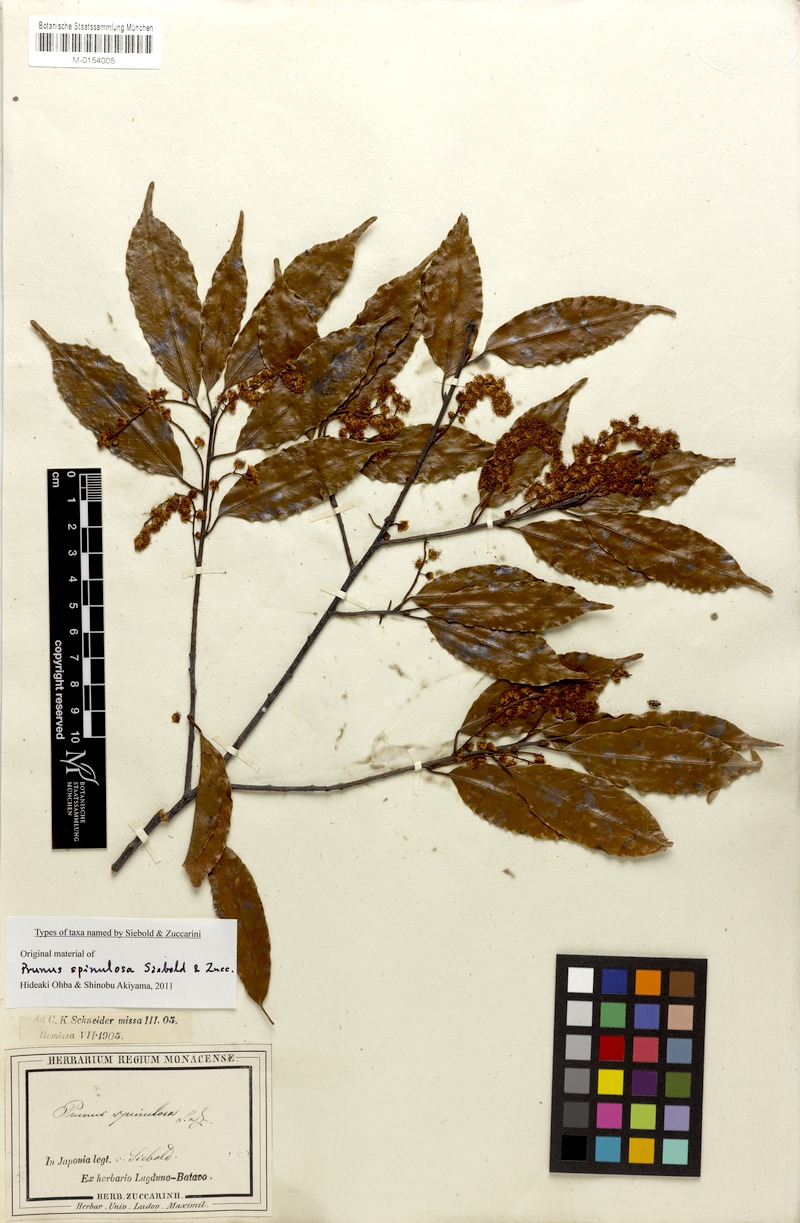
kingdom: Plantae
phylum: Tracheophyta
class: Magnoliopsida
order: Rosales
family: Rosaceae
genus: Prunus
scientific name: Prunus spinulosa
